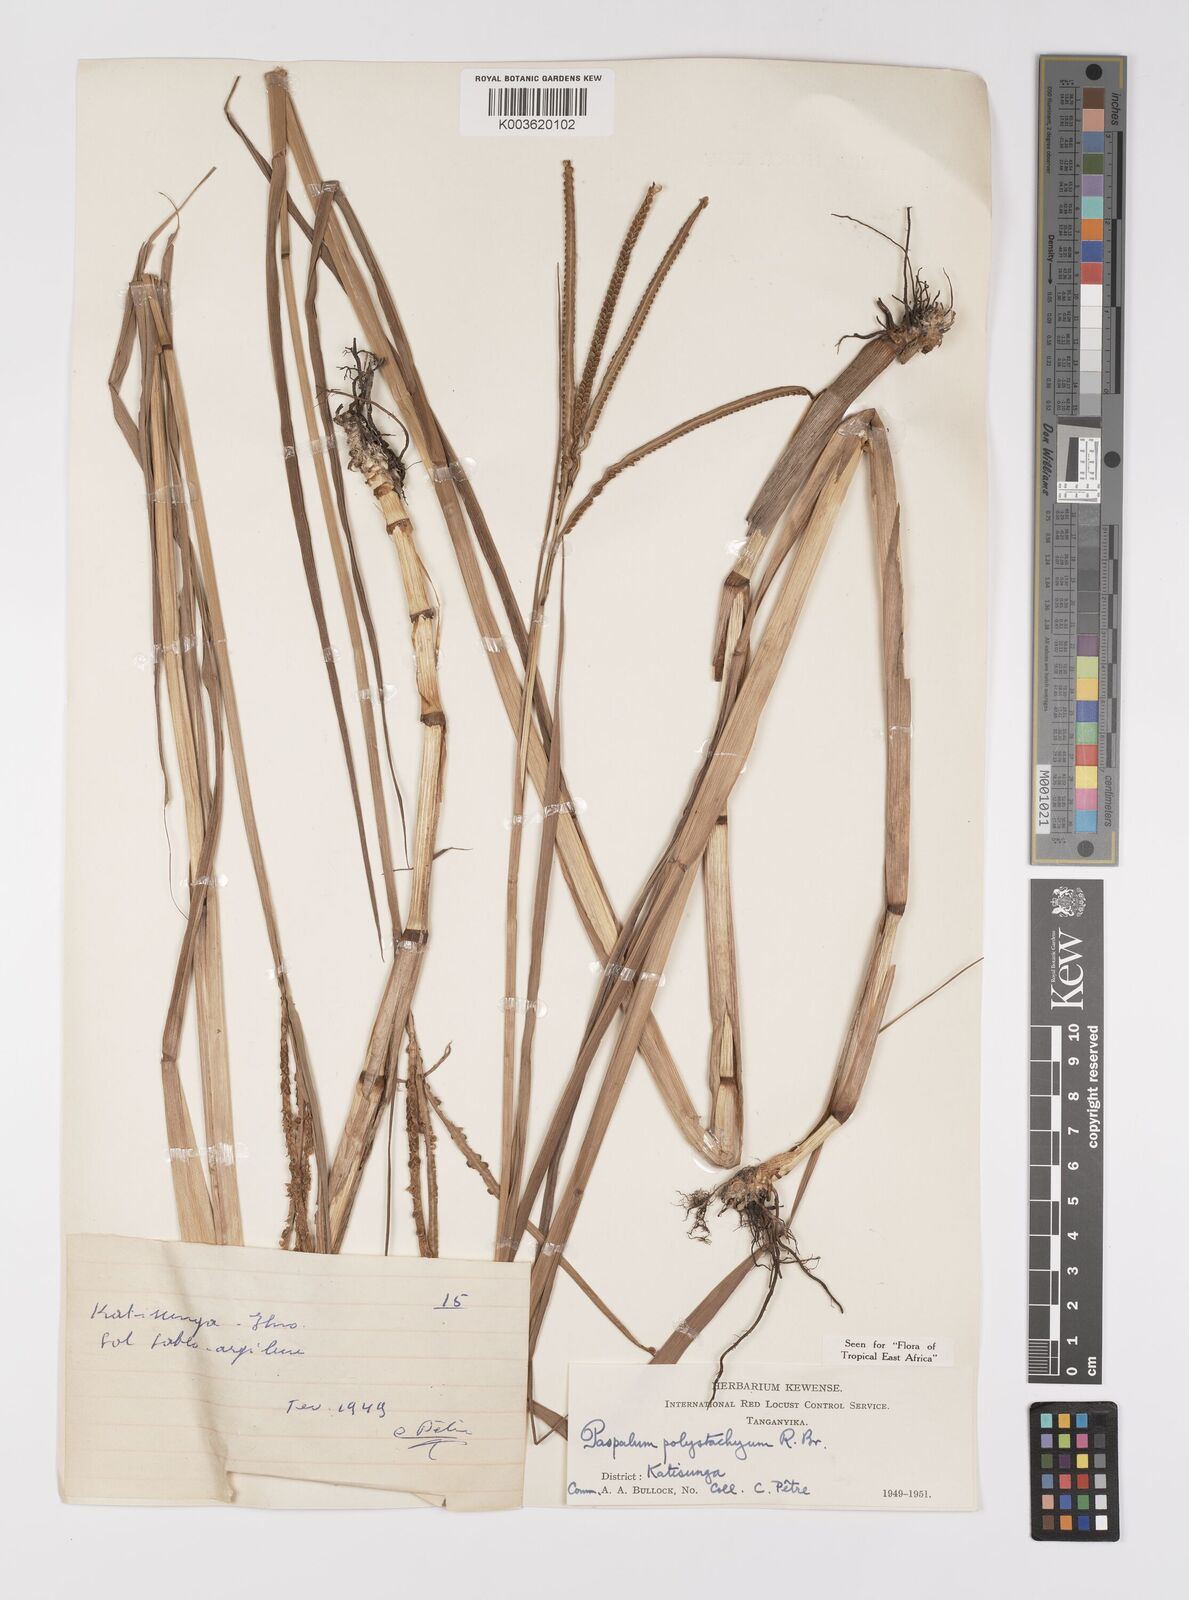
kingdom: Plantae
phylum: Tracheophyta
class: Liliopsida
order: Poales
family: Poaceae
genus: Paspalum
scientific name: Paspalum scrobiculatum
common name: Kodo millet
